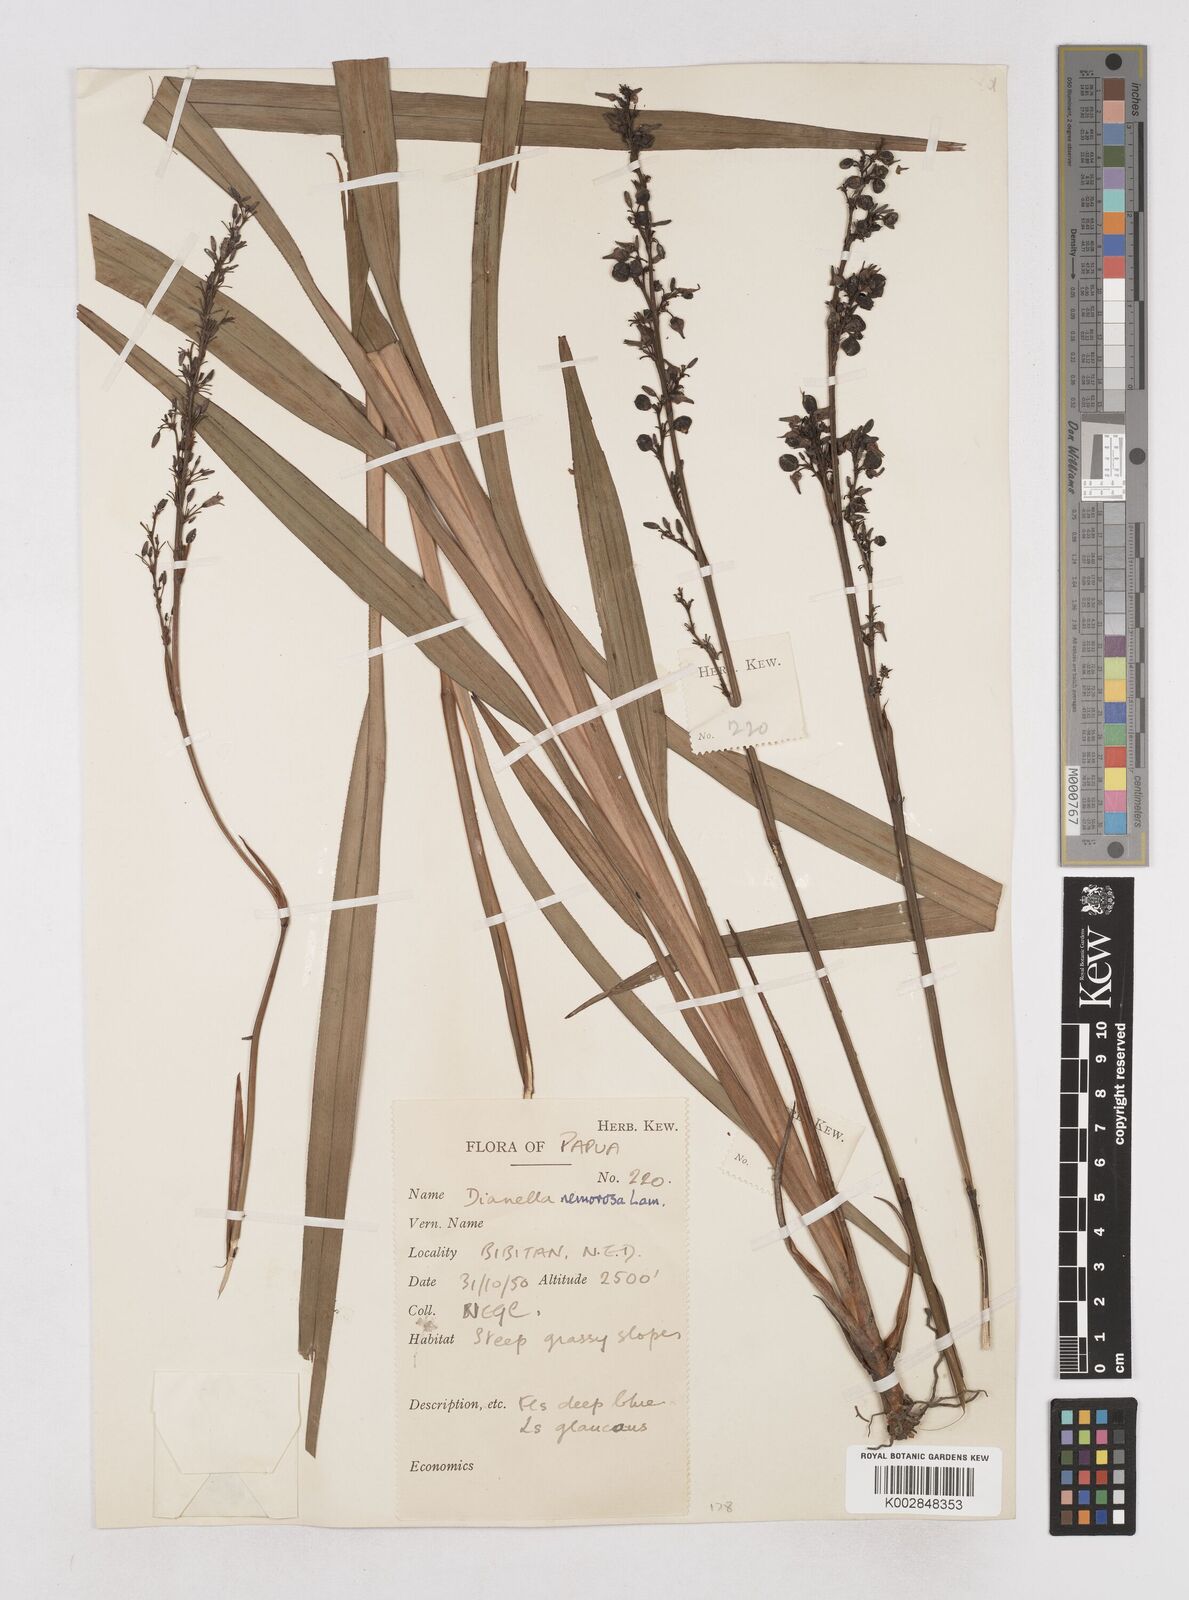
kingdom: Plantae
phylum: Tracheophyta
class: Liliopsida
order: Asparagales
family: Asphodelaceae
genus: Dianella
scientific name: Dianella congesta
